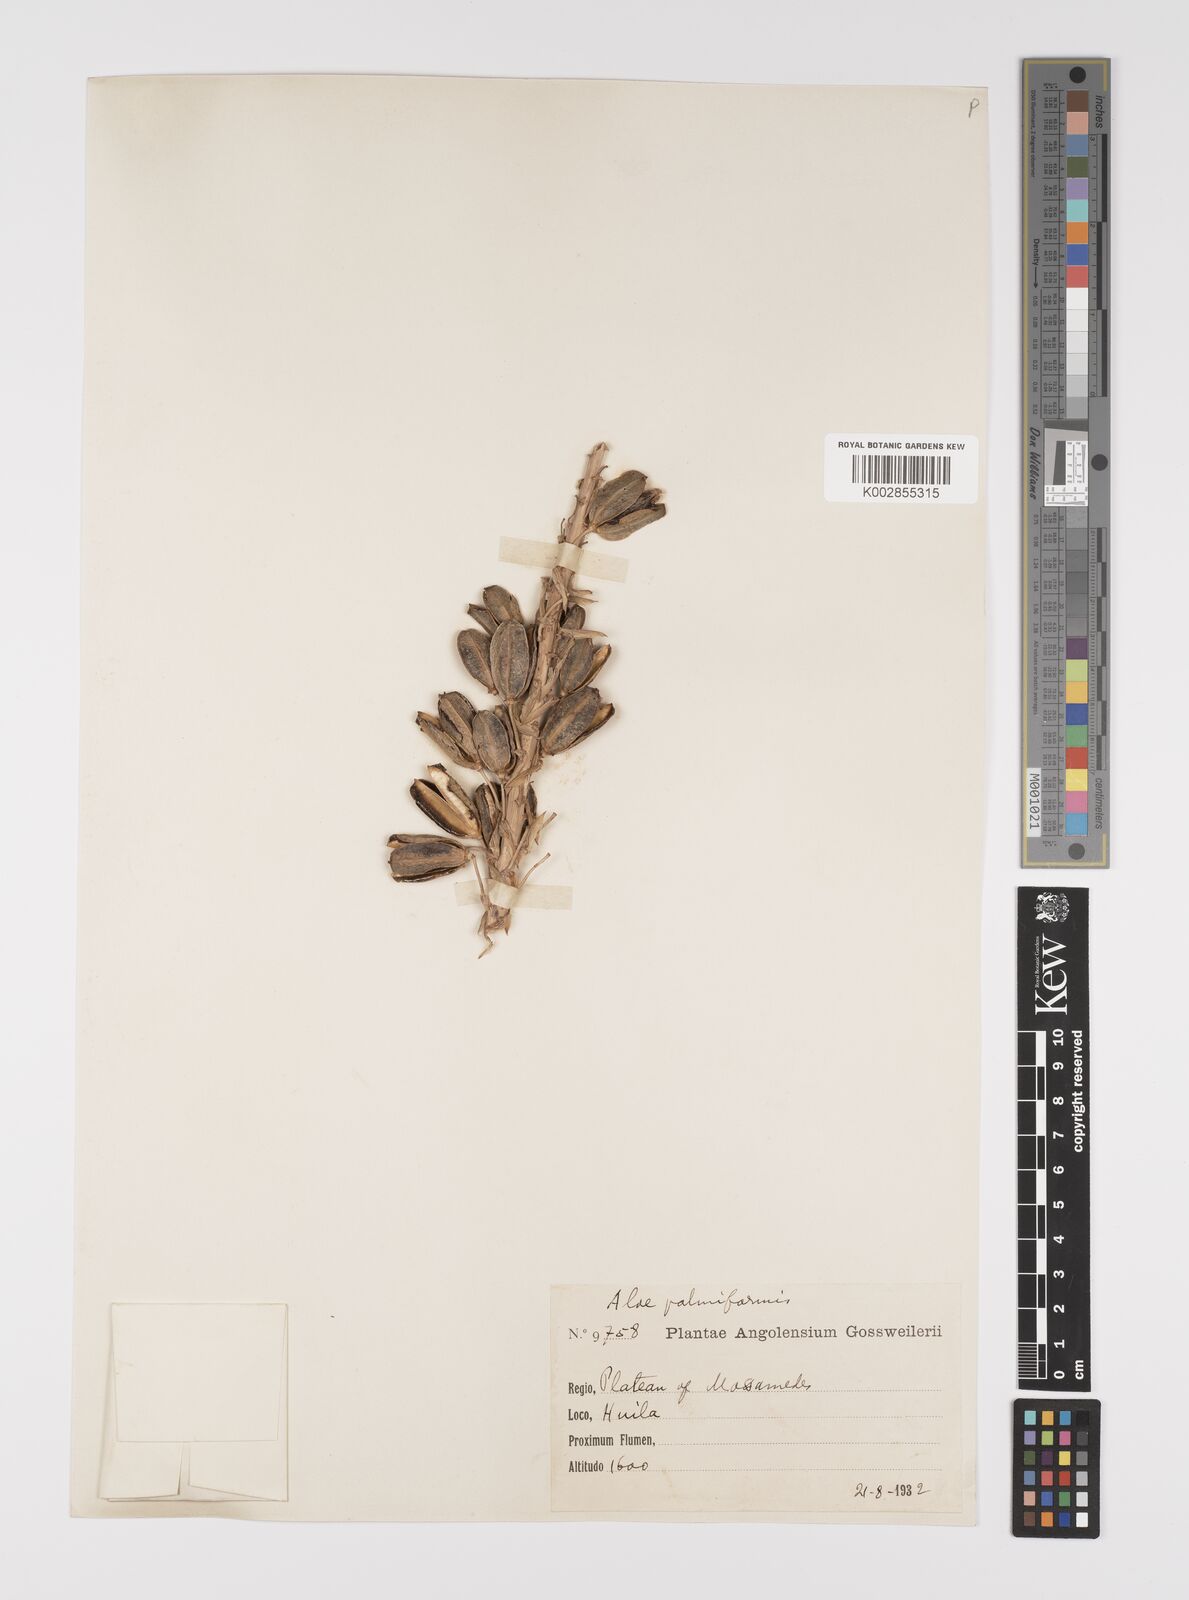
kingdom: Plantae
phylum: Tracheophyta
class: Liliopsida
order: Asparagales
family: Asphodelaceae
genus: Aloe
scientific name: Aloe palmiformis
